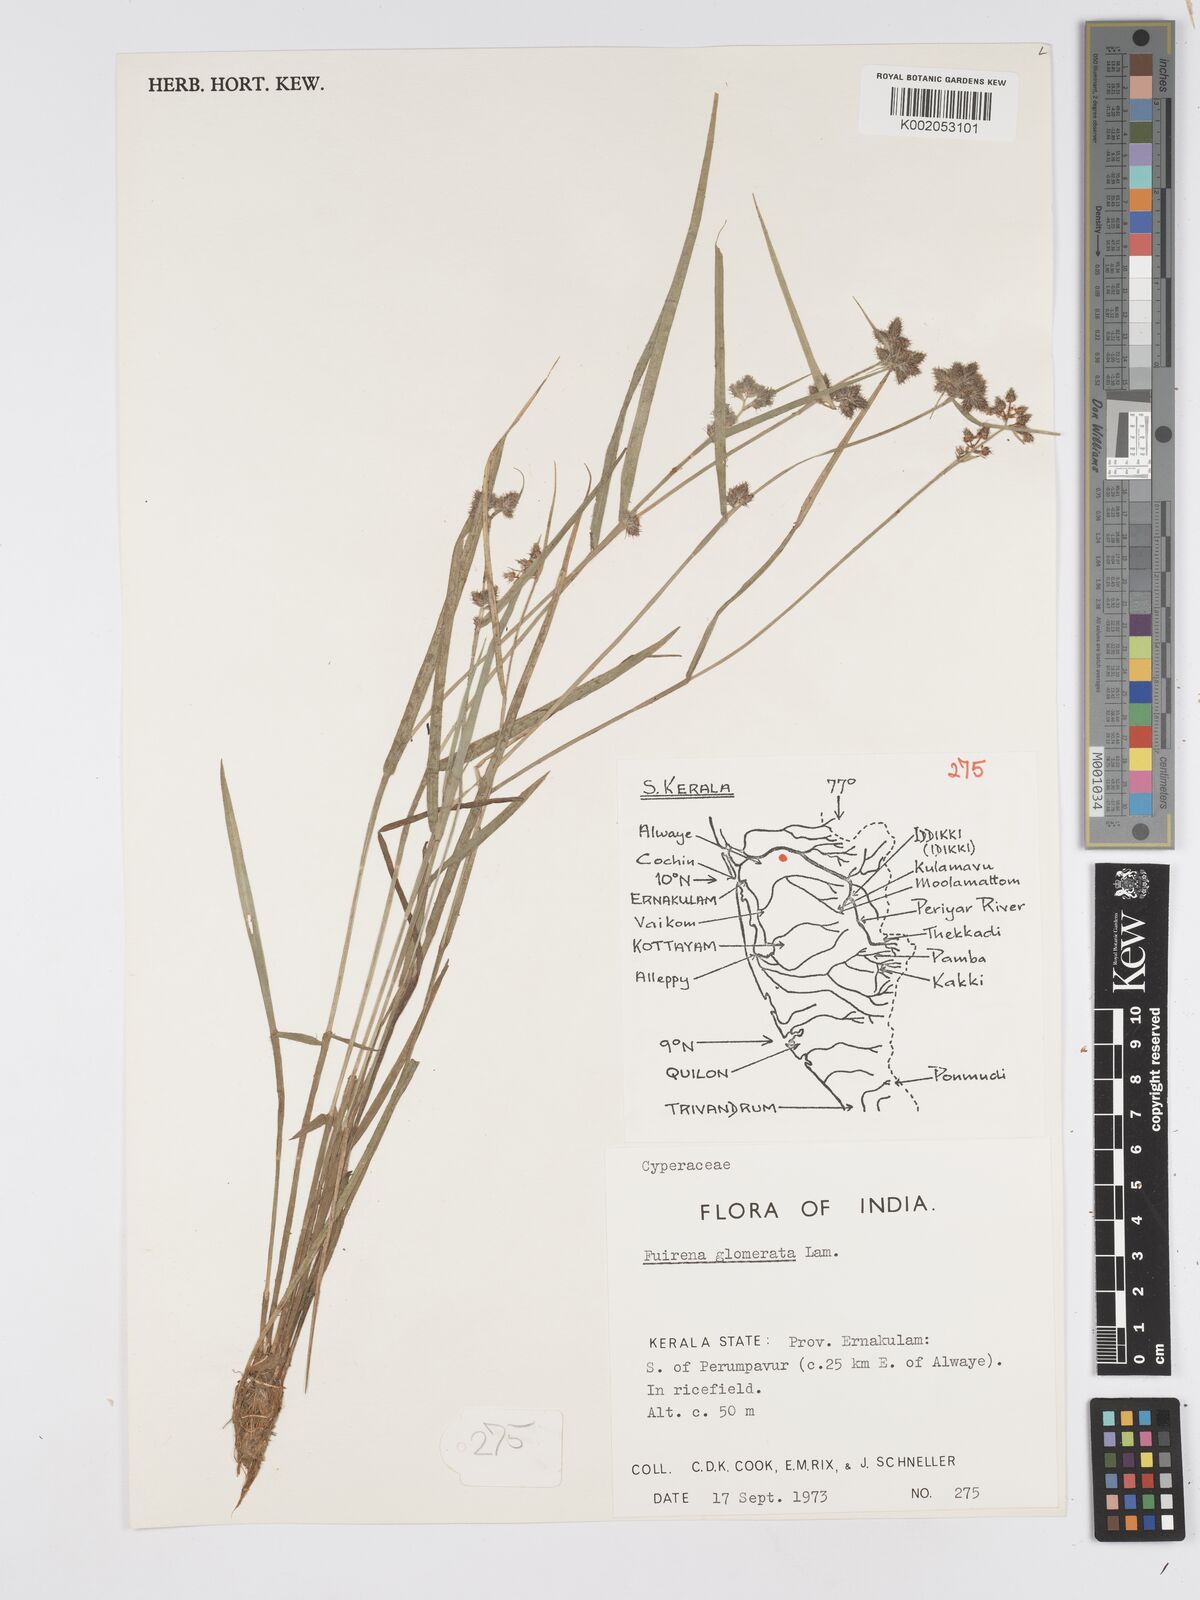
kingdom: Plantae
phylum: Tracheophyta
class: Liliopsida
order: Poales
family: Cyperaceae
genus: Fuirena
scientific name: Fuirena ciliaris
